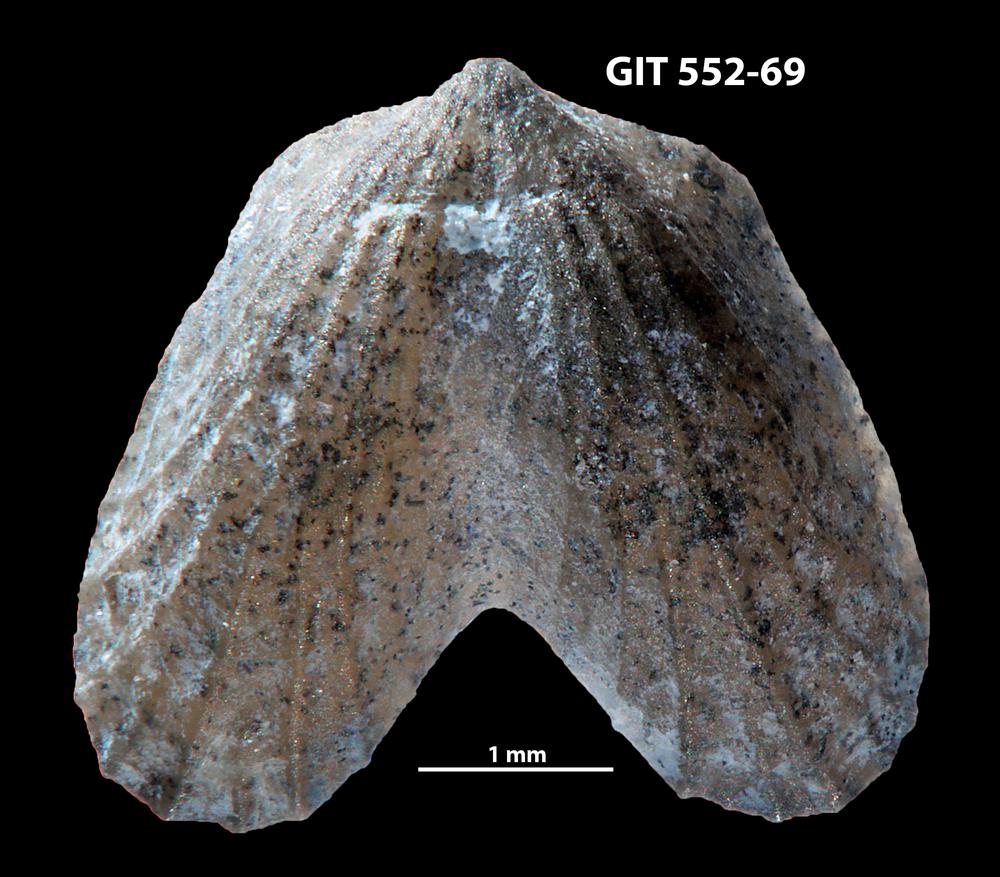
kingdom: Animalia
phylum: Brachiopoda
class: Rhynchonellata
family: Dicoelosiidae
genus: Dicoelosia
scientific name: Dicoelosia osloensis
